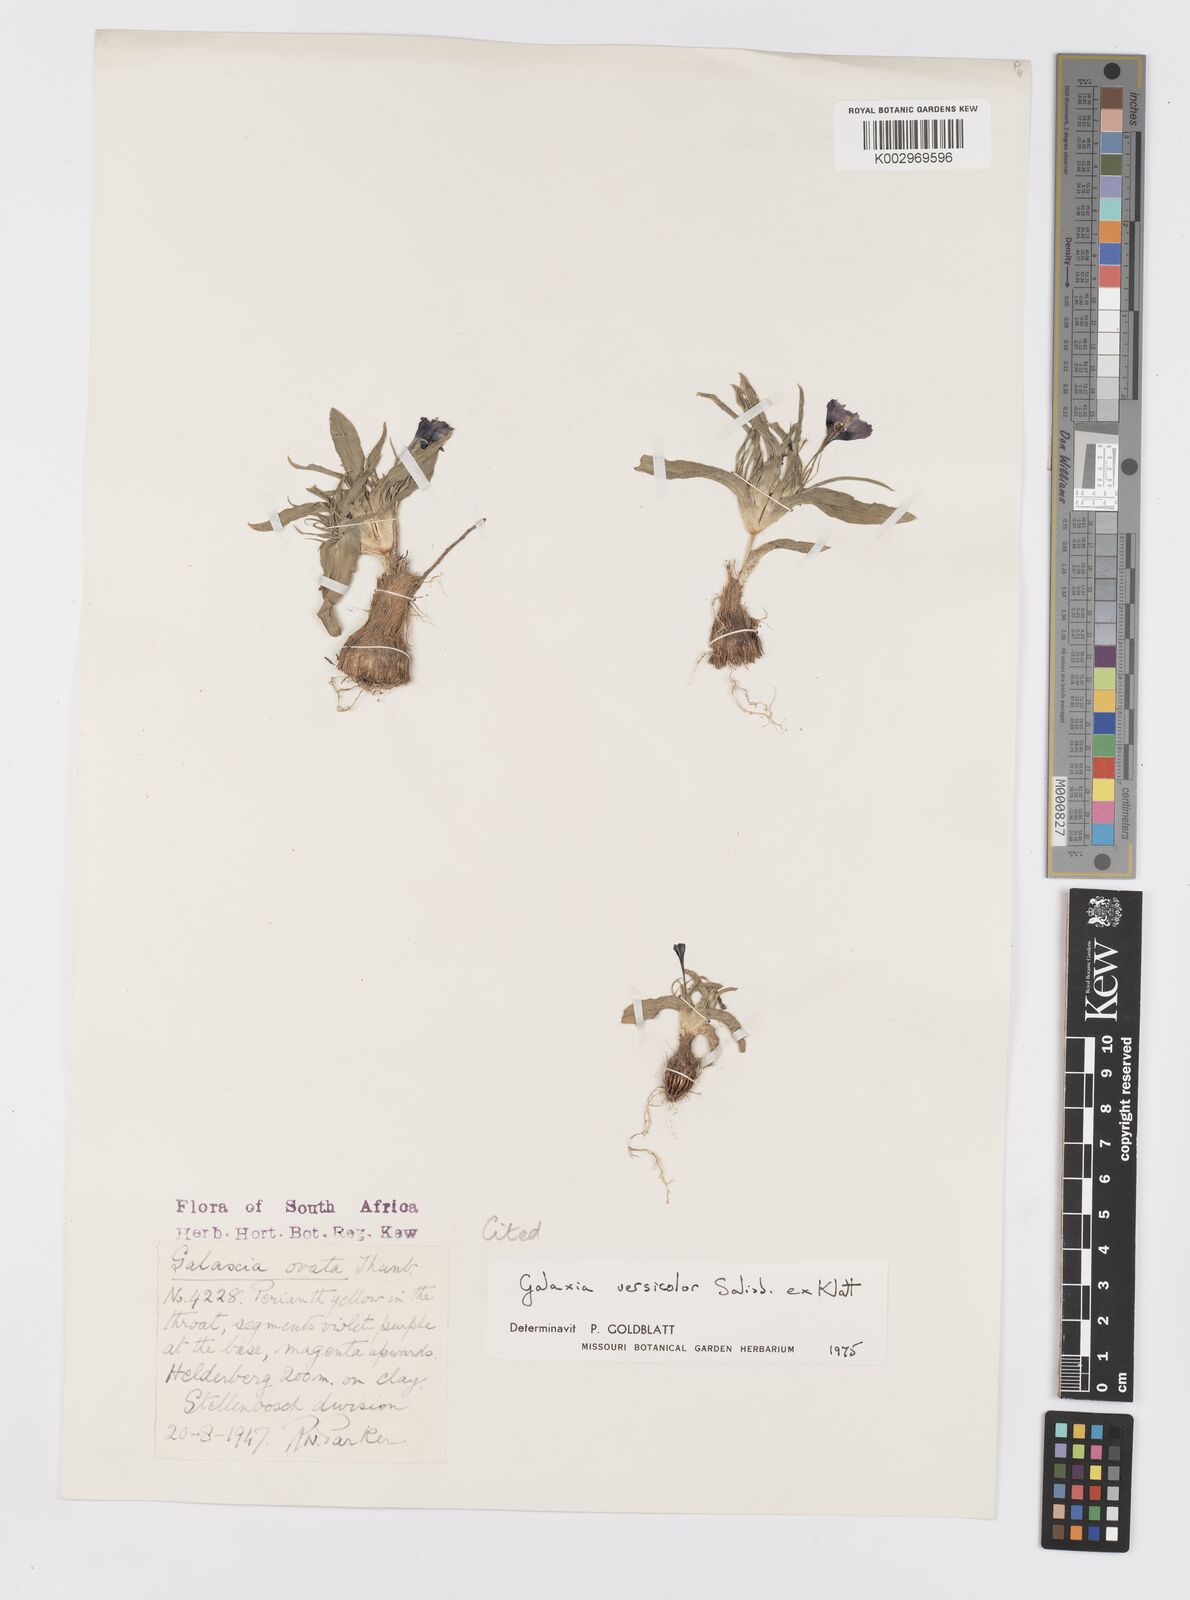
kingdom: Plantae
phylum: Tracheophyta
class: Liliopsida
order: Asparagales
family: Iridaceae
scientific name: Iridaceae
